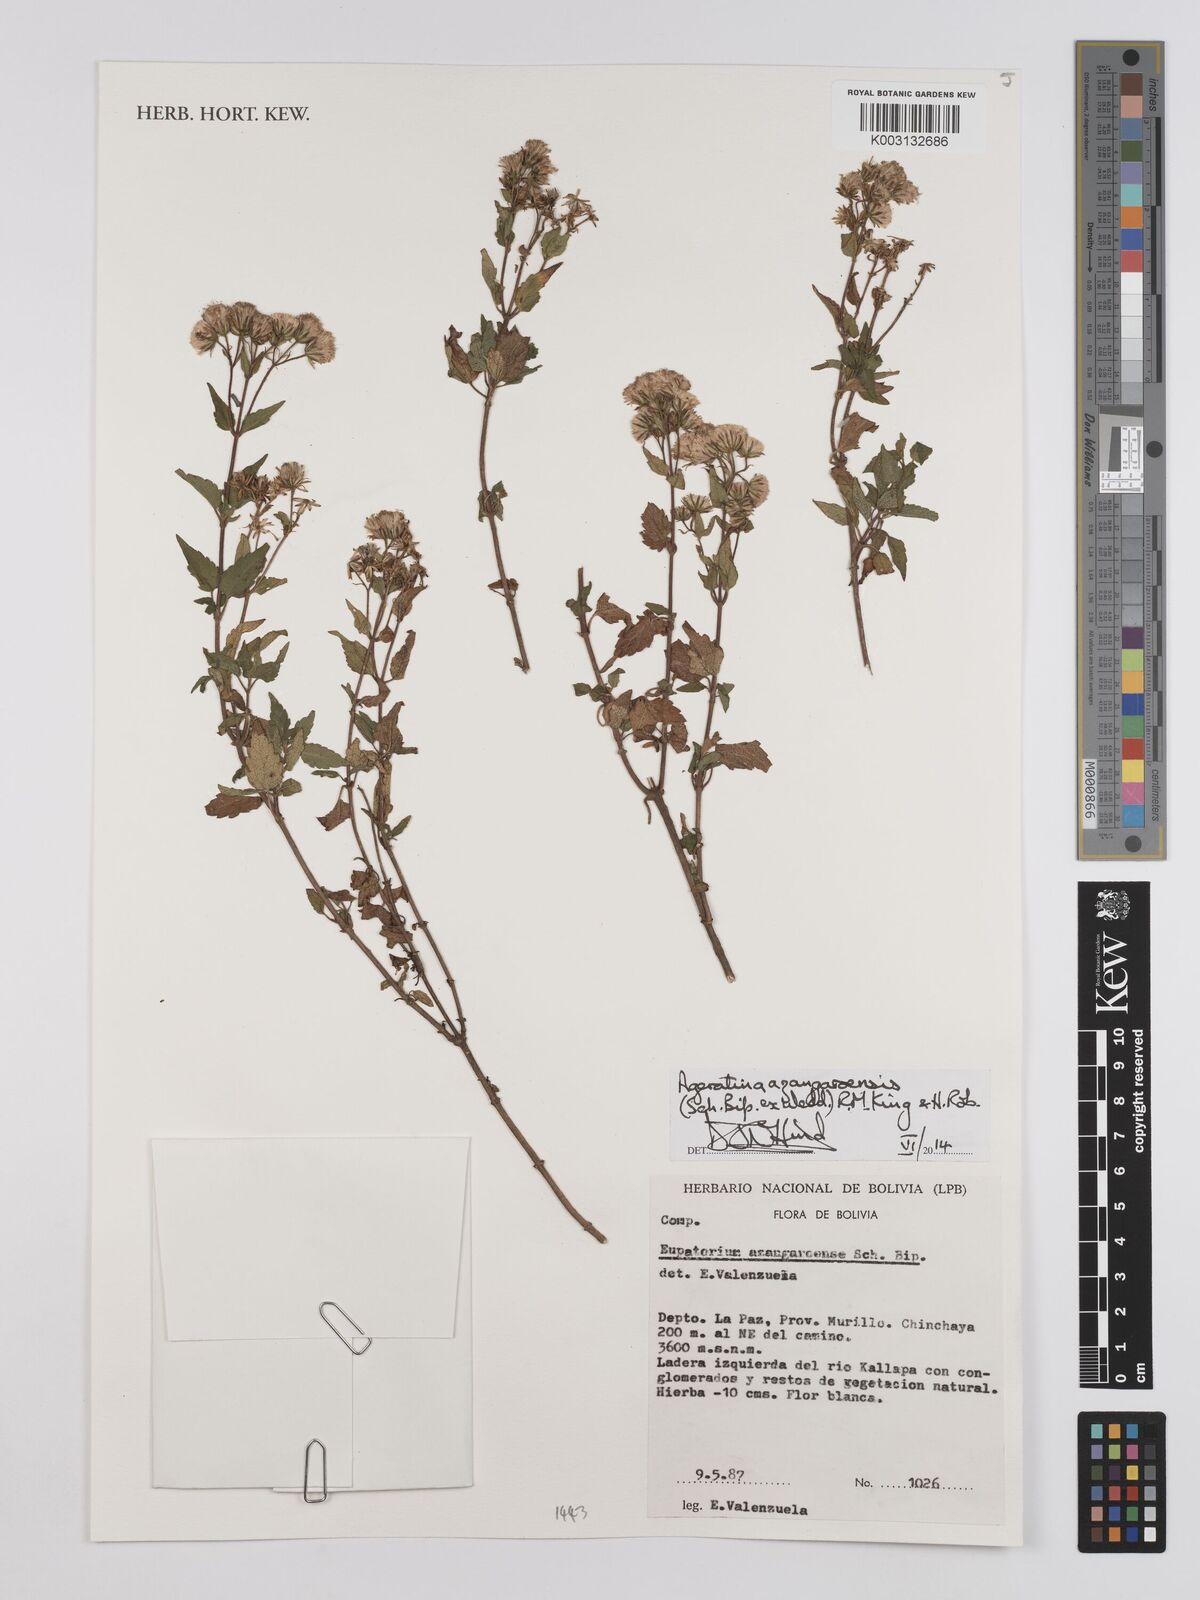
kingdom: Plantae
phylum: Tracheophyta
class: Magnoliopsida
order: Asterales
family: Asteraceae
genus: Ageratina
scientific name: Ageratina glechonophylla
